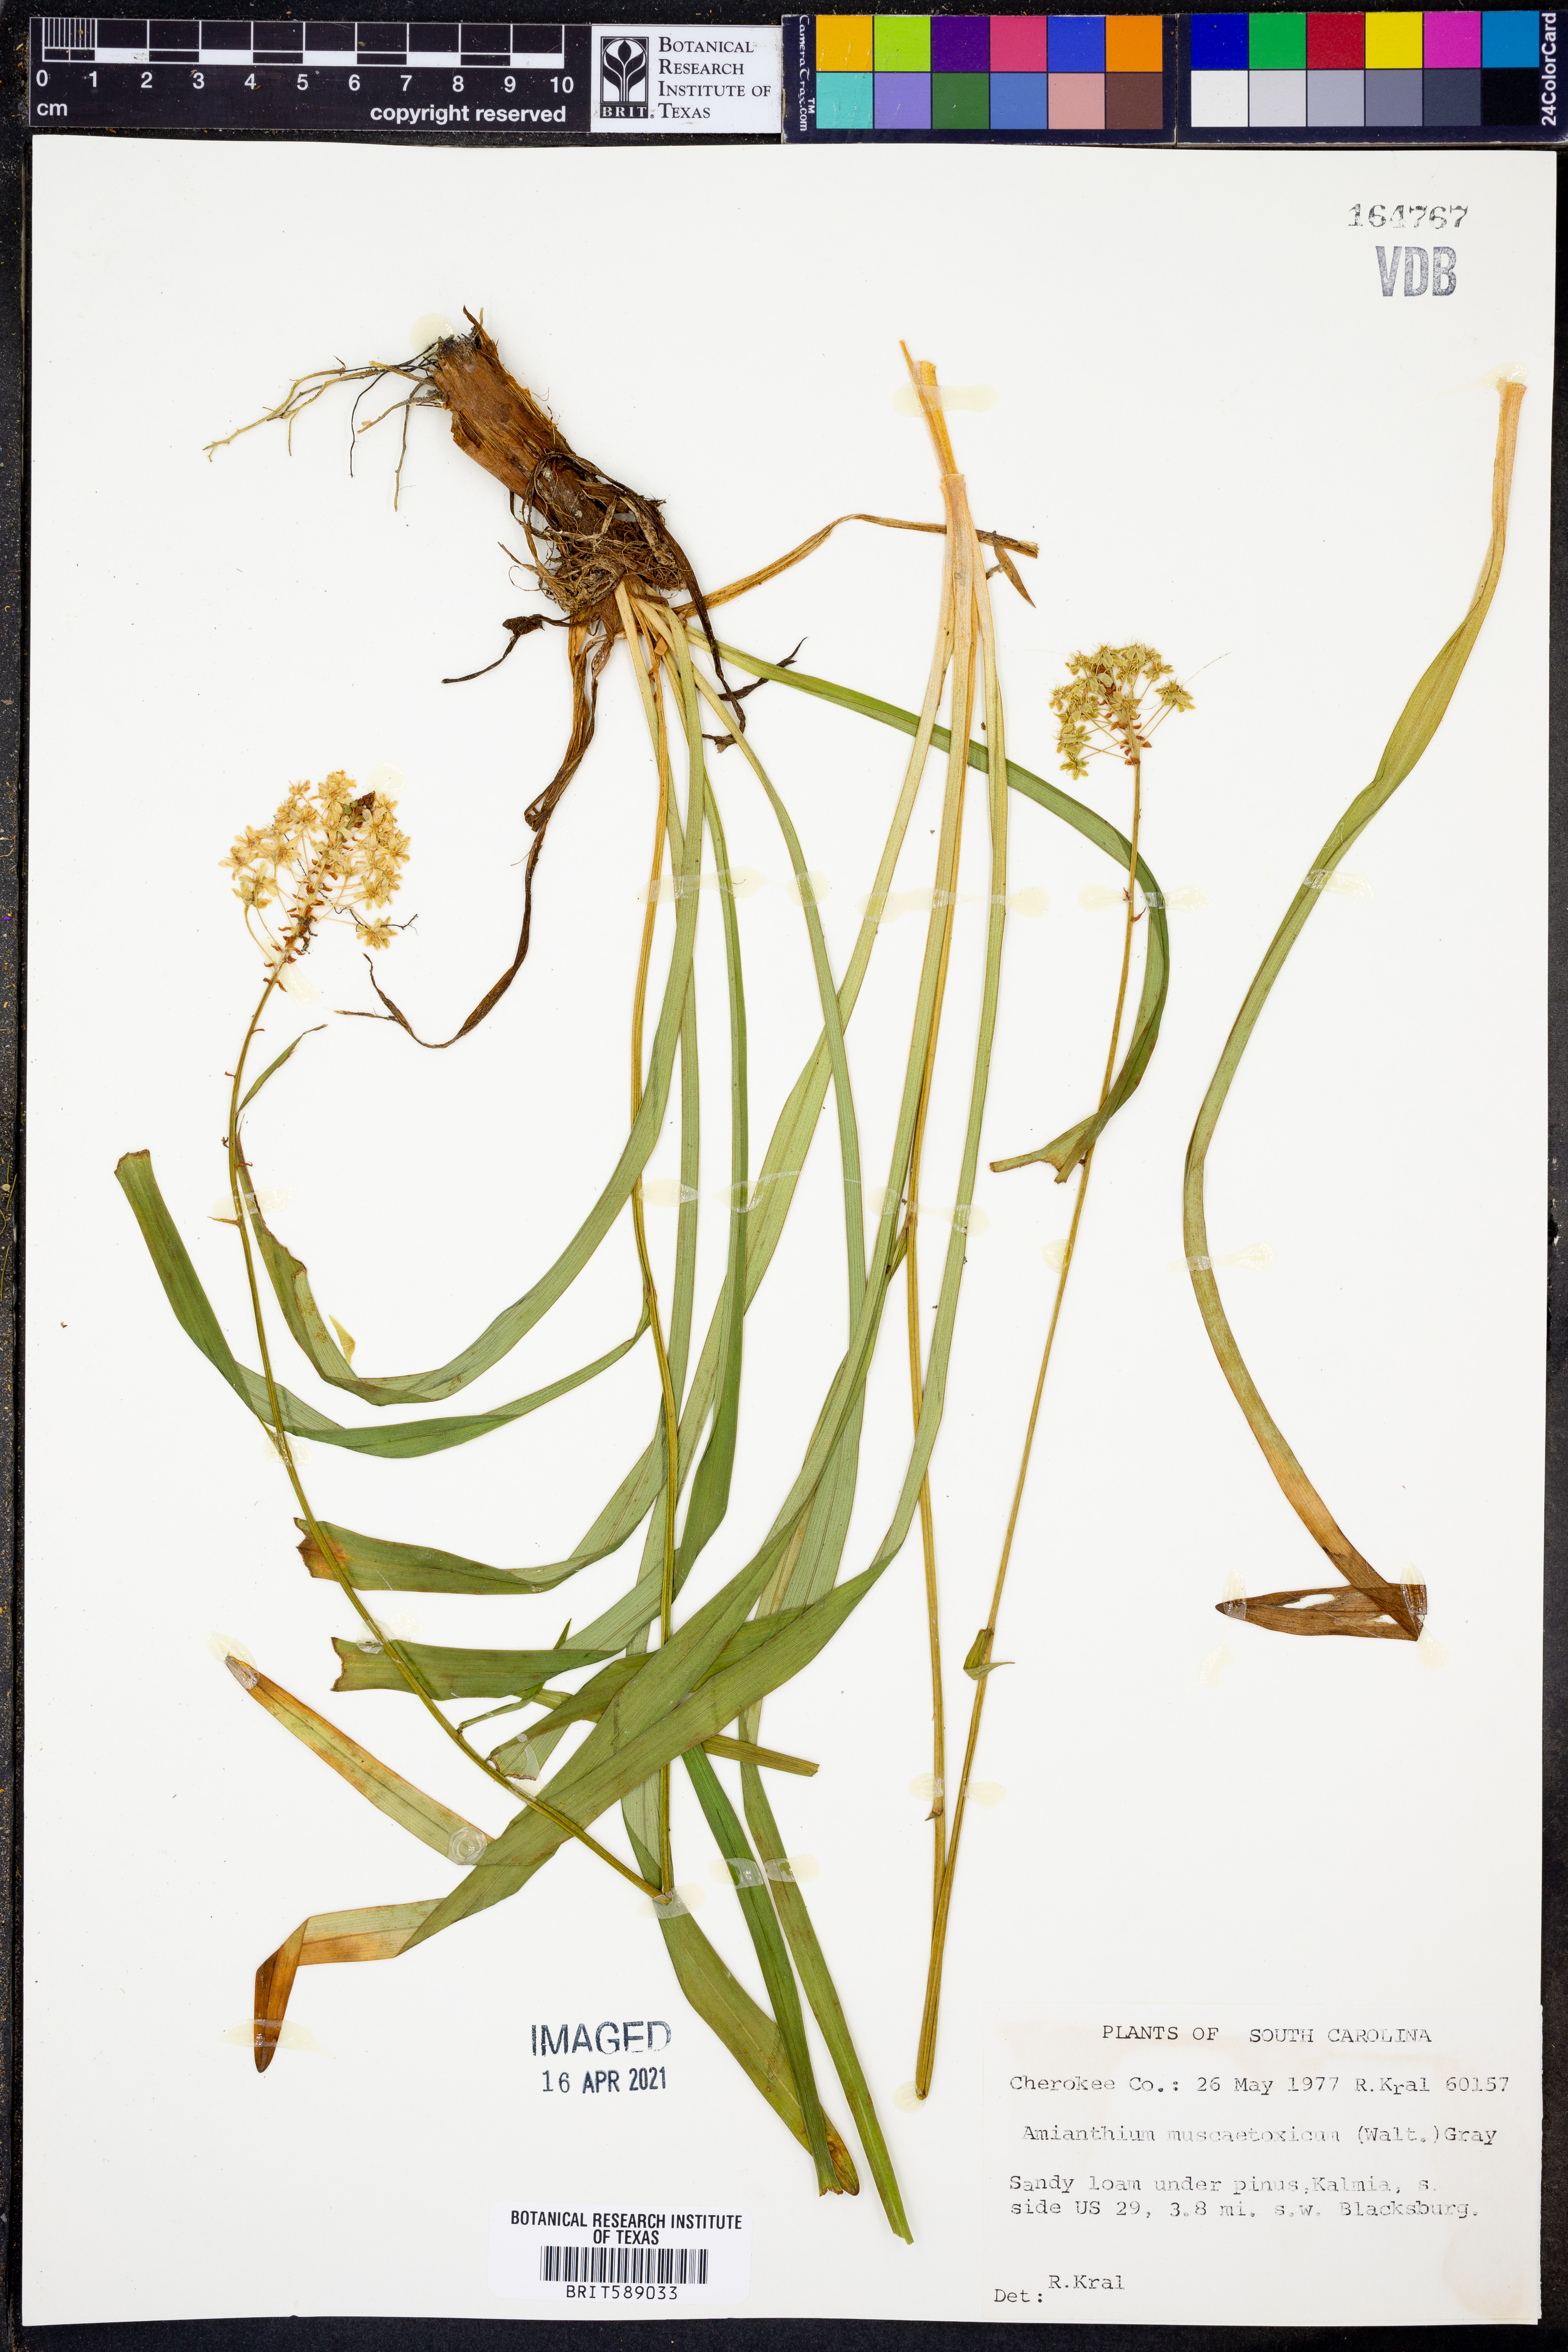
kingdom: Plantae
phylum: Tracheophyta
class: Liliopsida
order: Liliales
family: Melanthiaceae
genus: Amianthium
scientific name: Amianthium muscitoxicum
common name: Fly-poison
